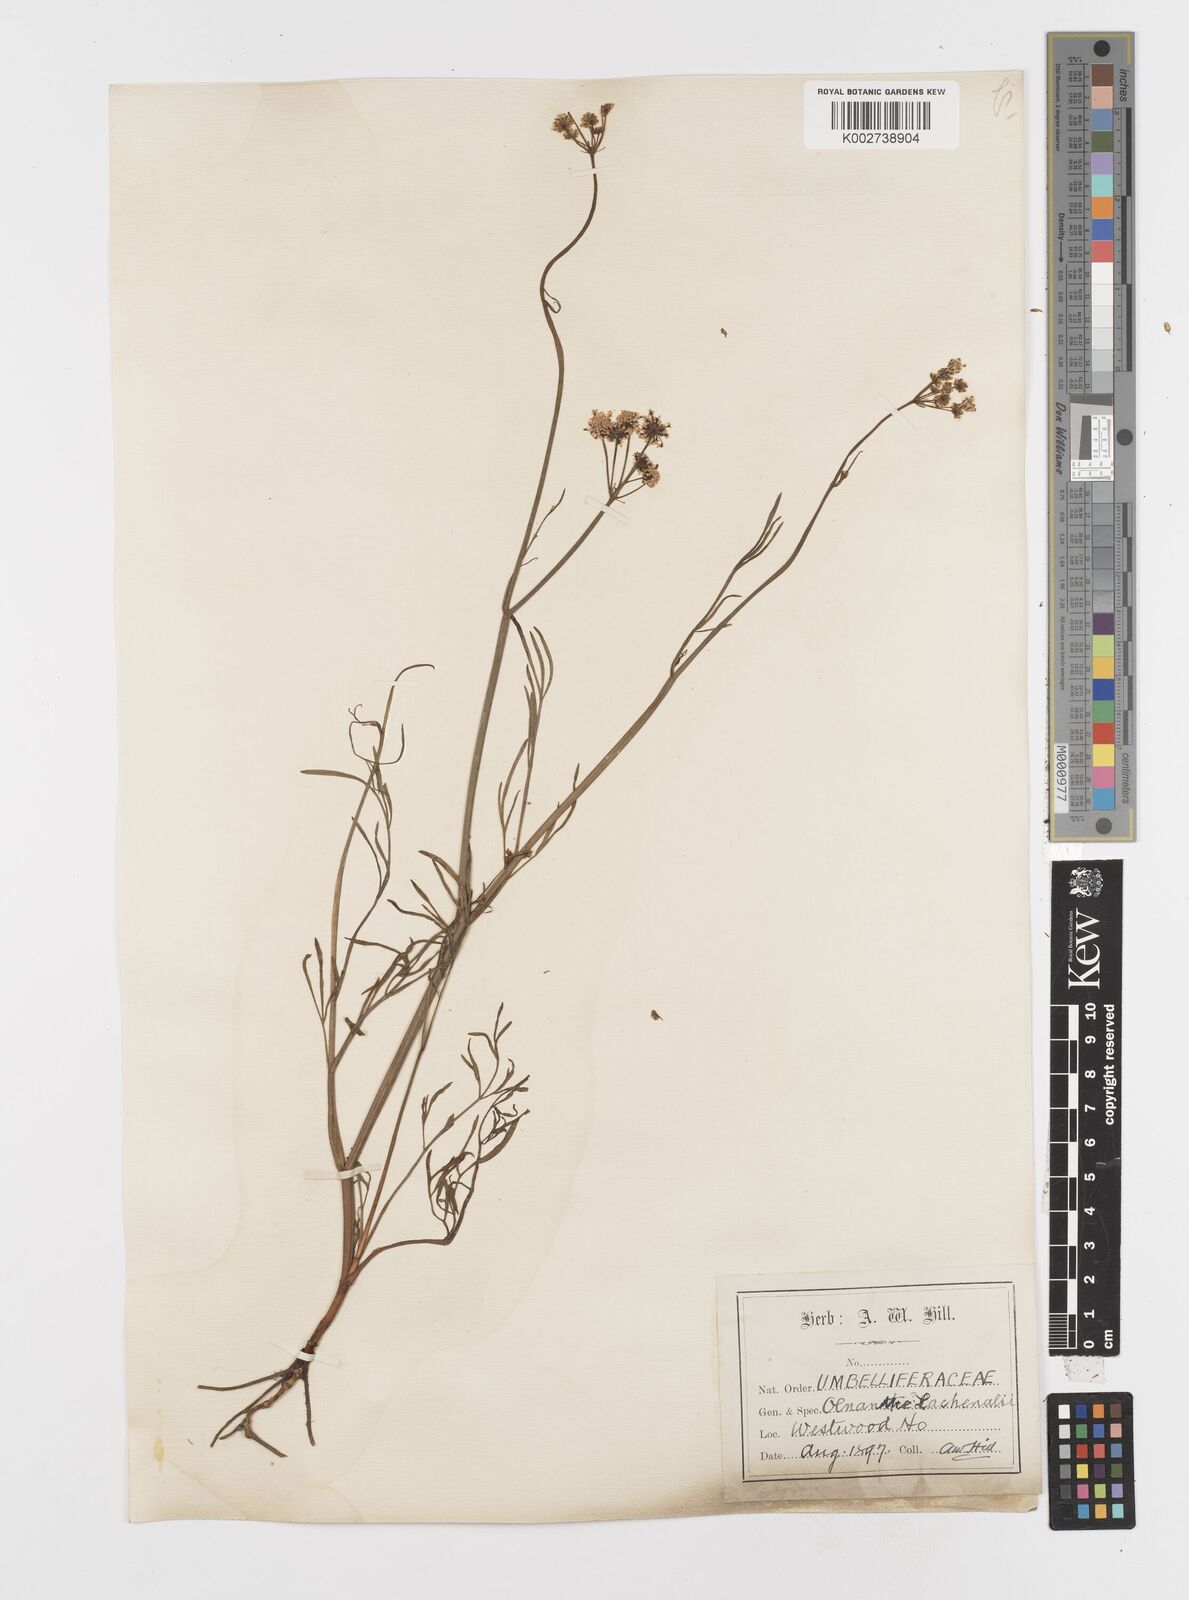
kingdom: Plantae
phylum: Tracheophyta
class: Magnoliopsida
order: Apiales
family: Apiaceae
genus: Oenanthe
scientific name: Oenanthe lachenalii
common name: Parsley water-dropwort
